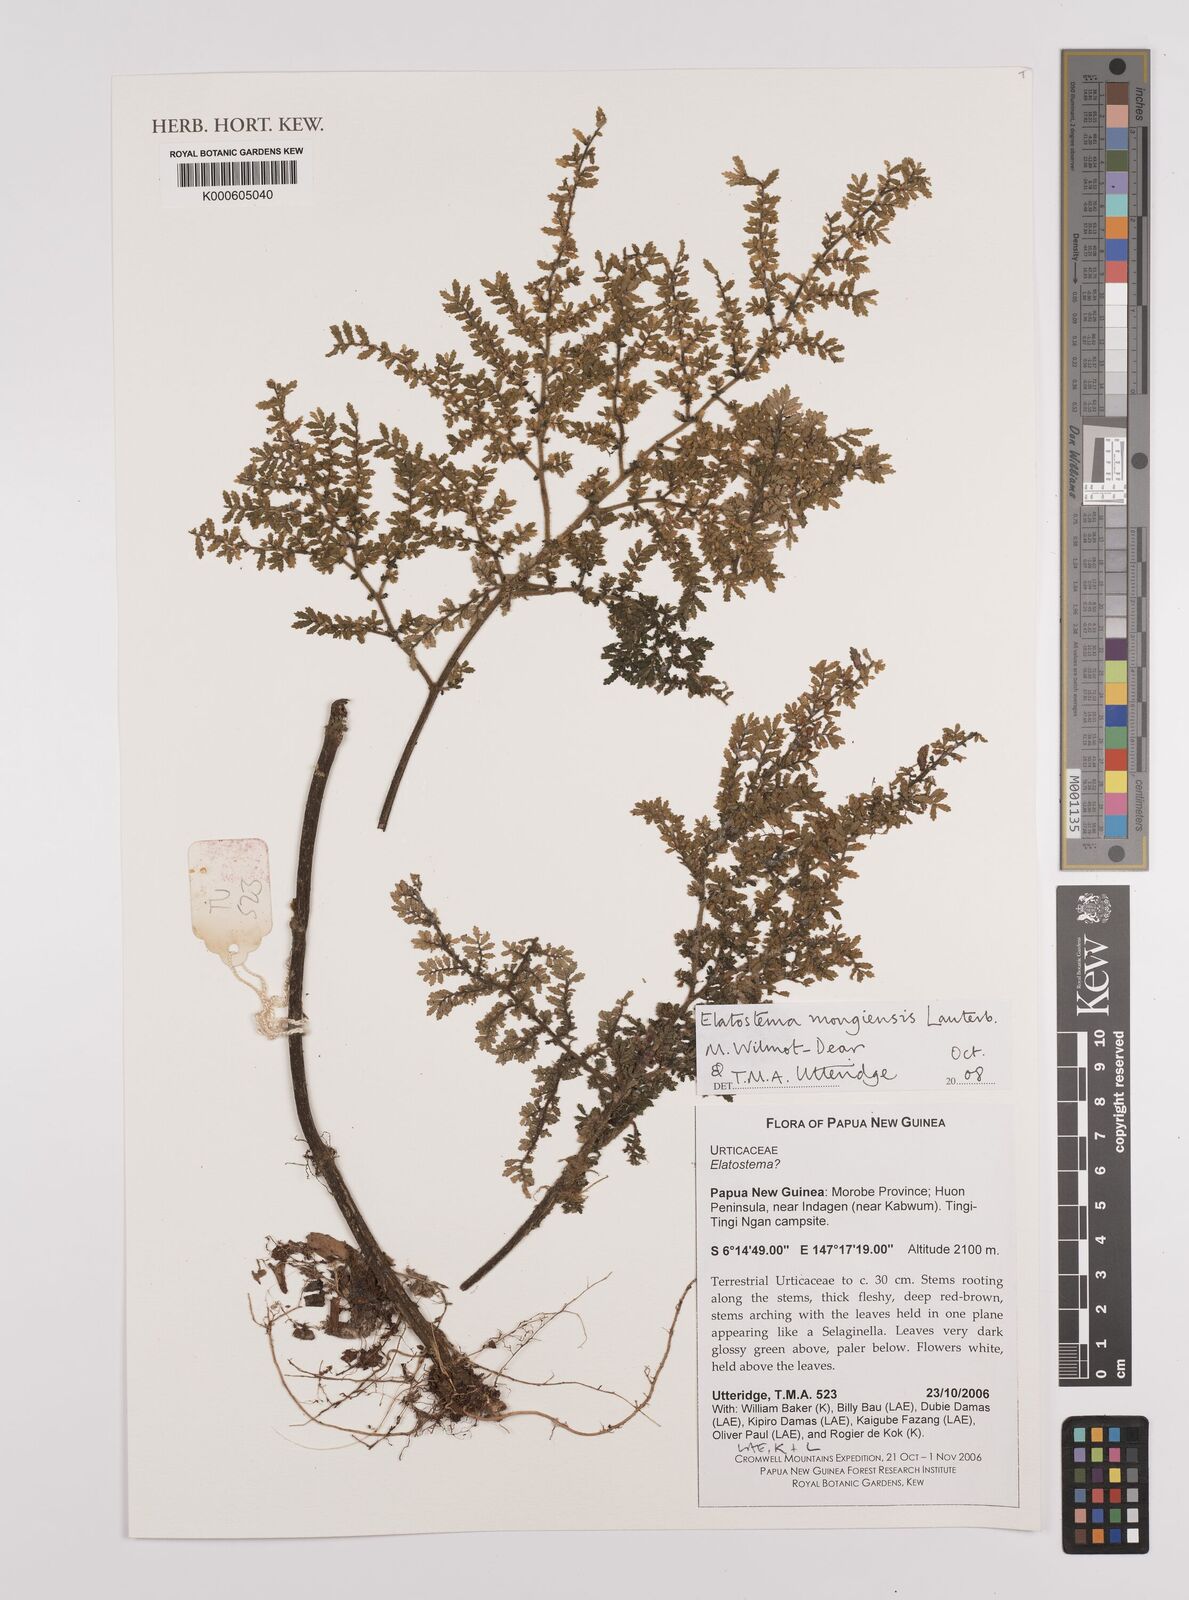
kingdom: Plantae
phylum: Tracheophyta
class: Magnoliopsida
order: Rosales
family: Urticaceae
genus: Elatostema
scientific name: Elatostema mongiensis
